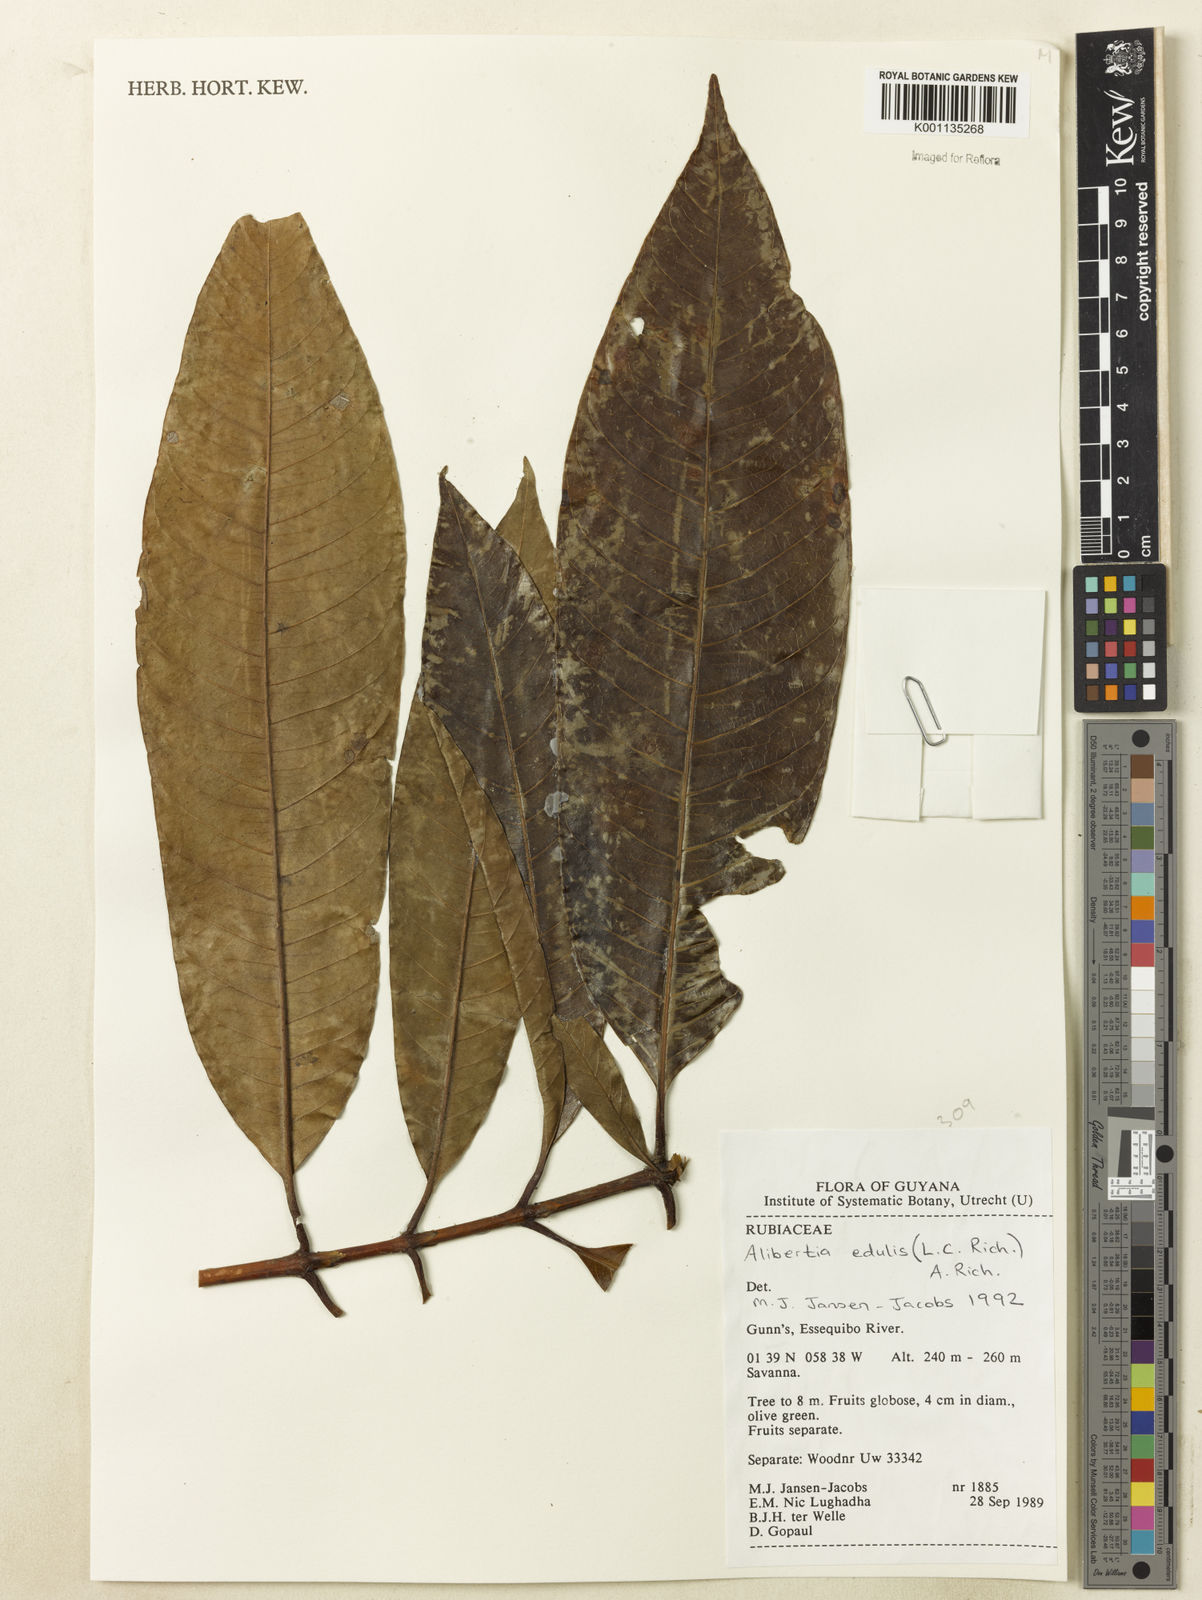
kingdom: Plantae
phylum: Tracheophyta
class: Magnoliopsida
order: Gentianales
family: Rubiaceae
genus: Alibertia
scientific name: Alibertia edulis
